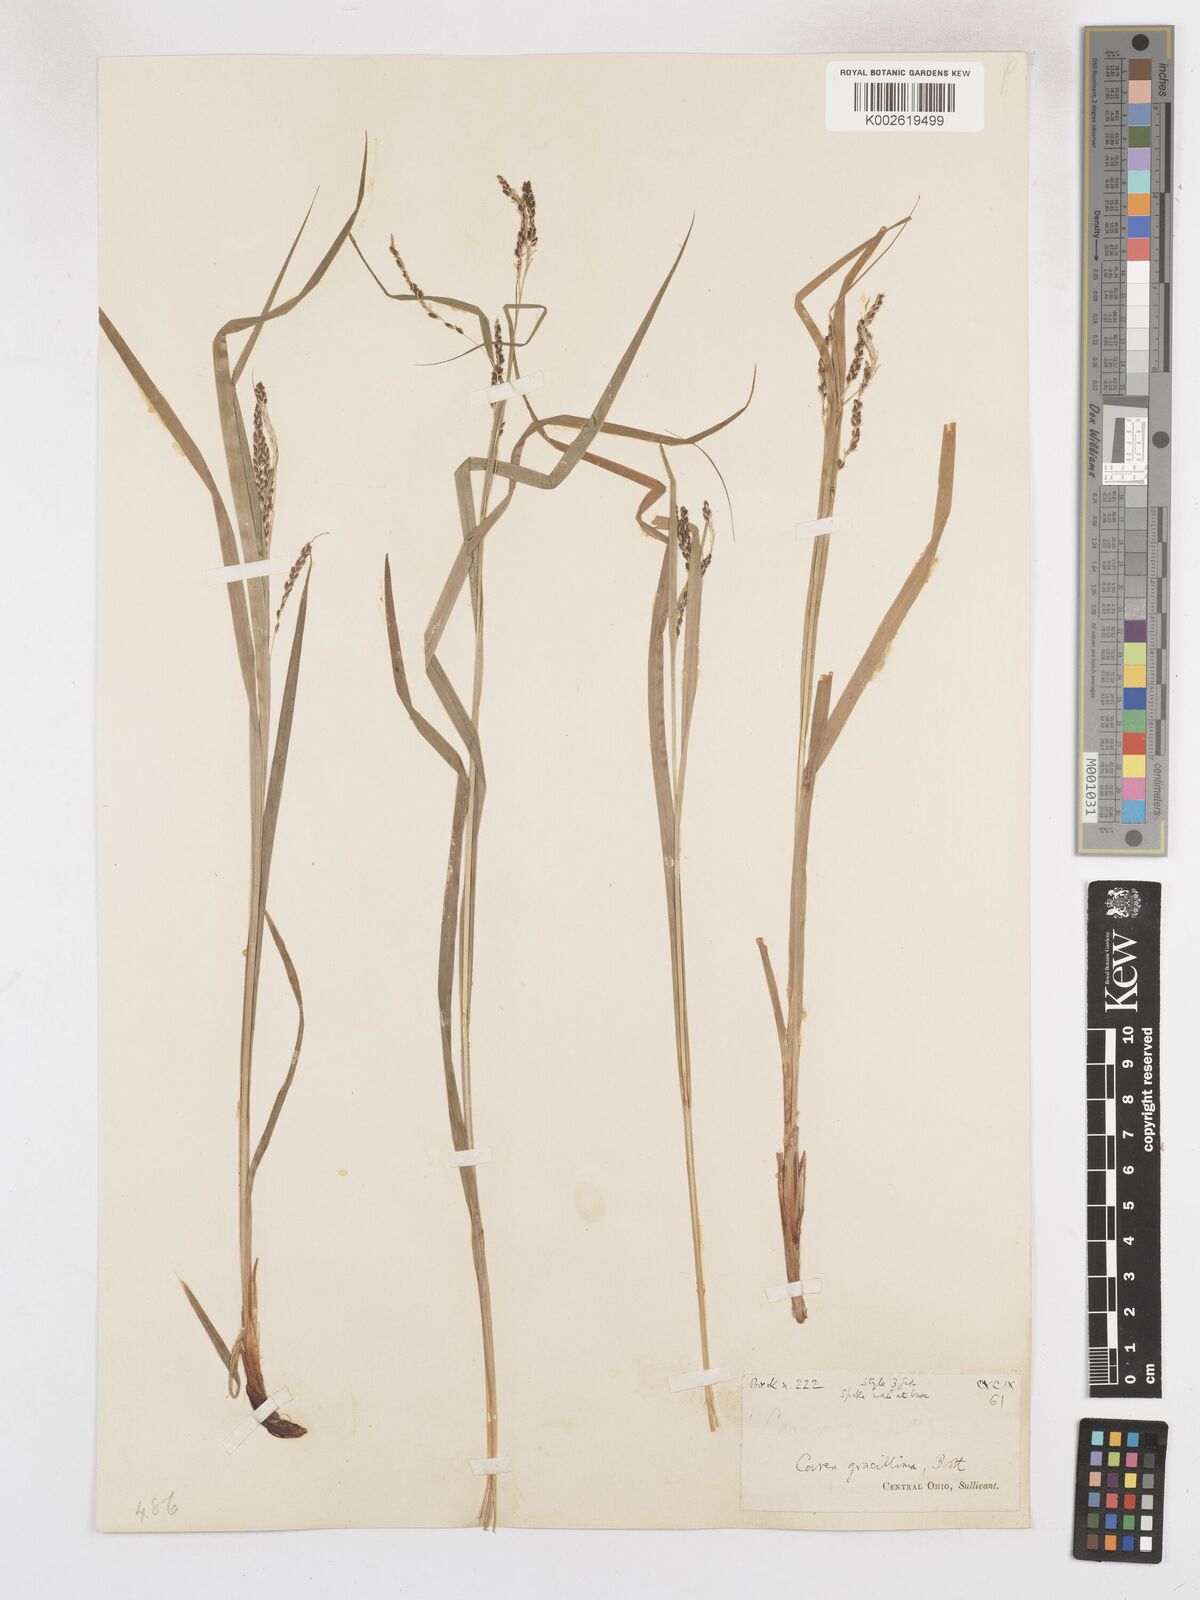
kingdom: Plantae
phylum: Tracheophyta
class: Liliopsida
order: Poales
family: Cyperaceae
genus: Carex
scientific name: Carex gracillima
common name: Graceful sedge
